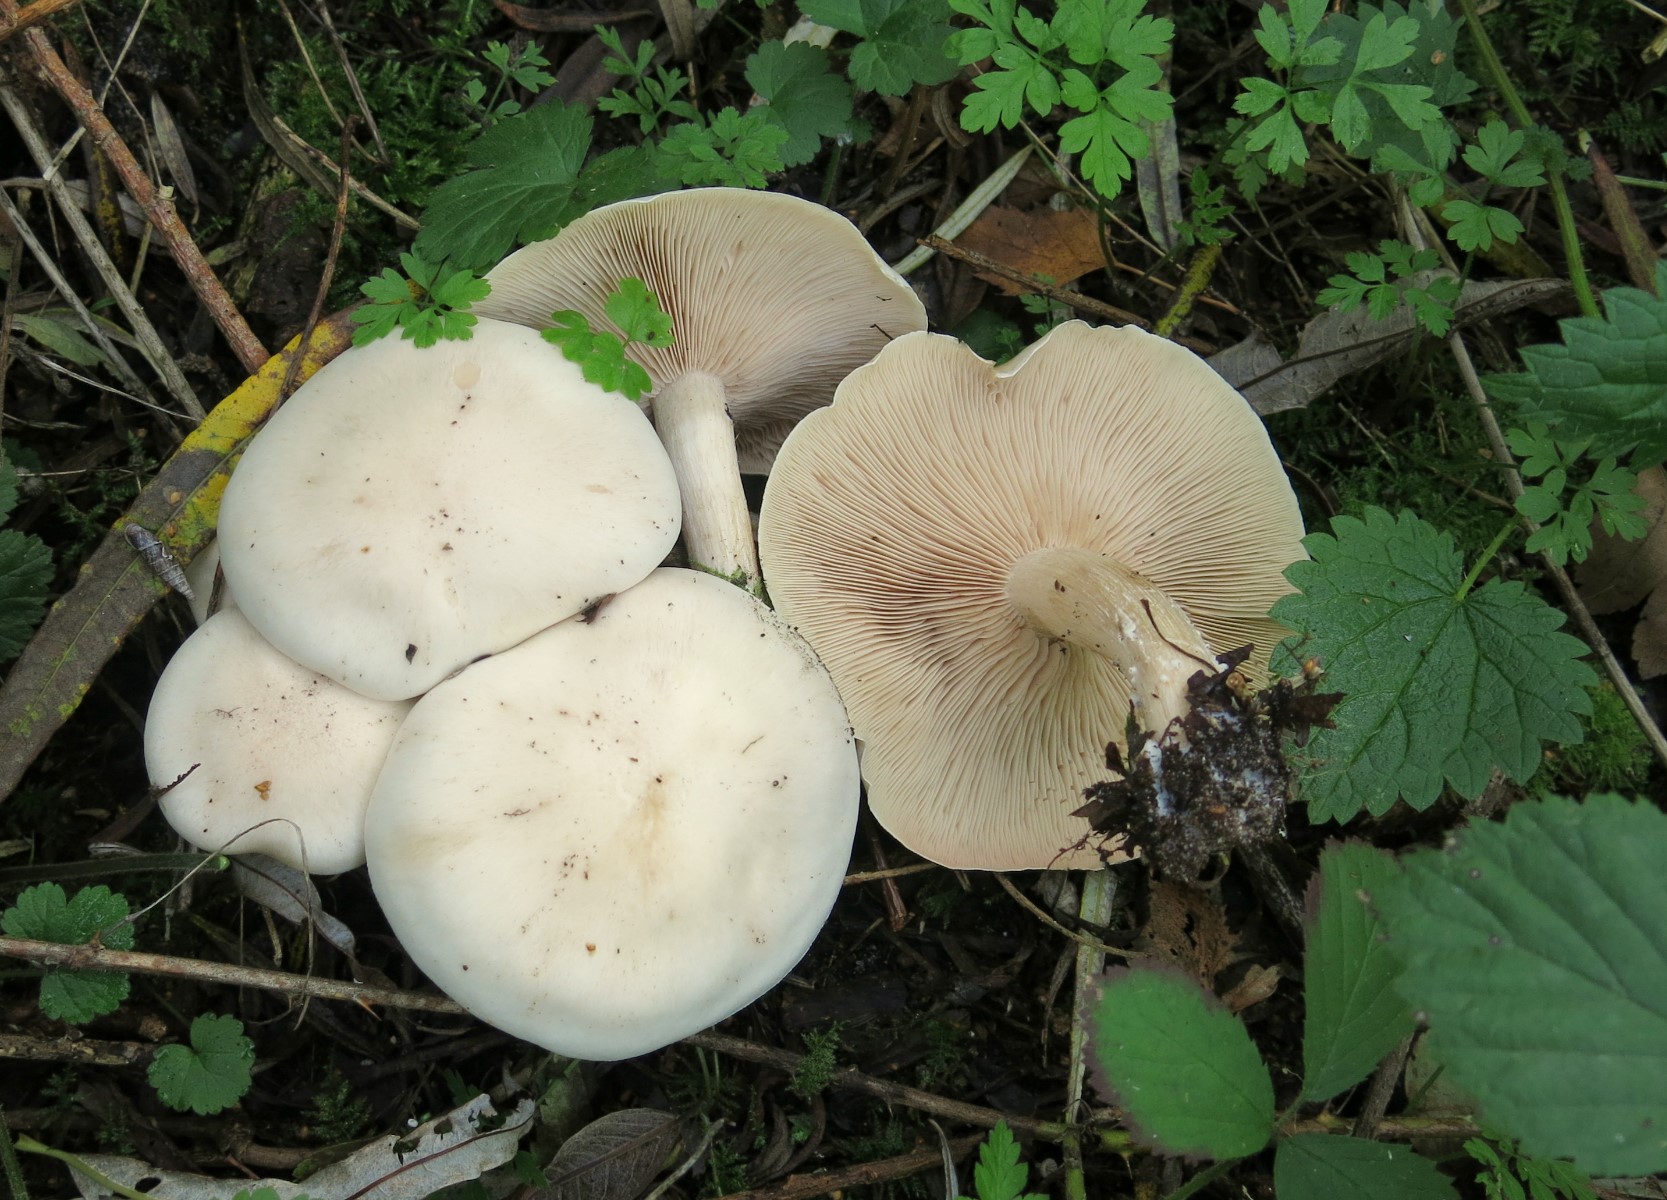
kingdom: Fungi
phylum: Basidiomycota
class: Agaricomycetes
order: Agaricales
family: Tricholomataceae
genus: Lepista
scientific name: Lepista irina
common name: violduftende hekseringshat
